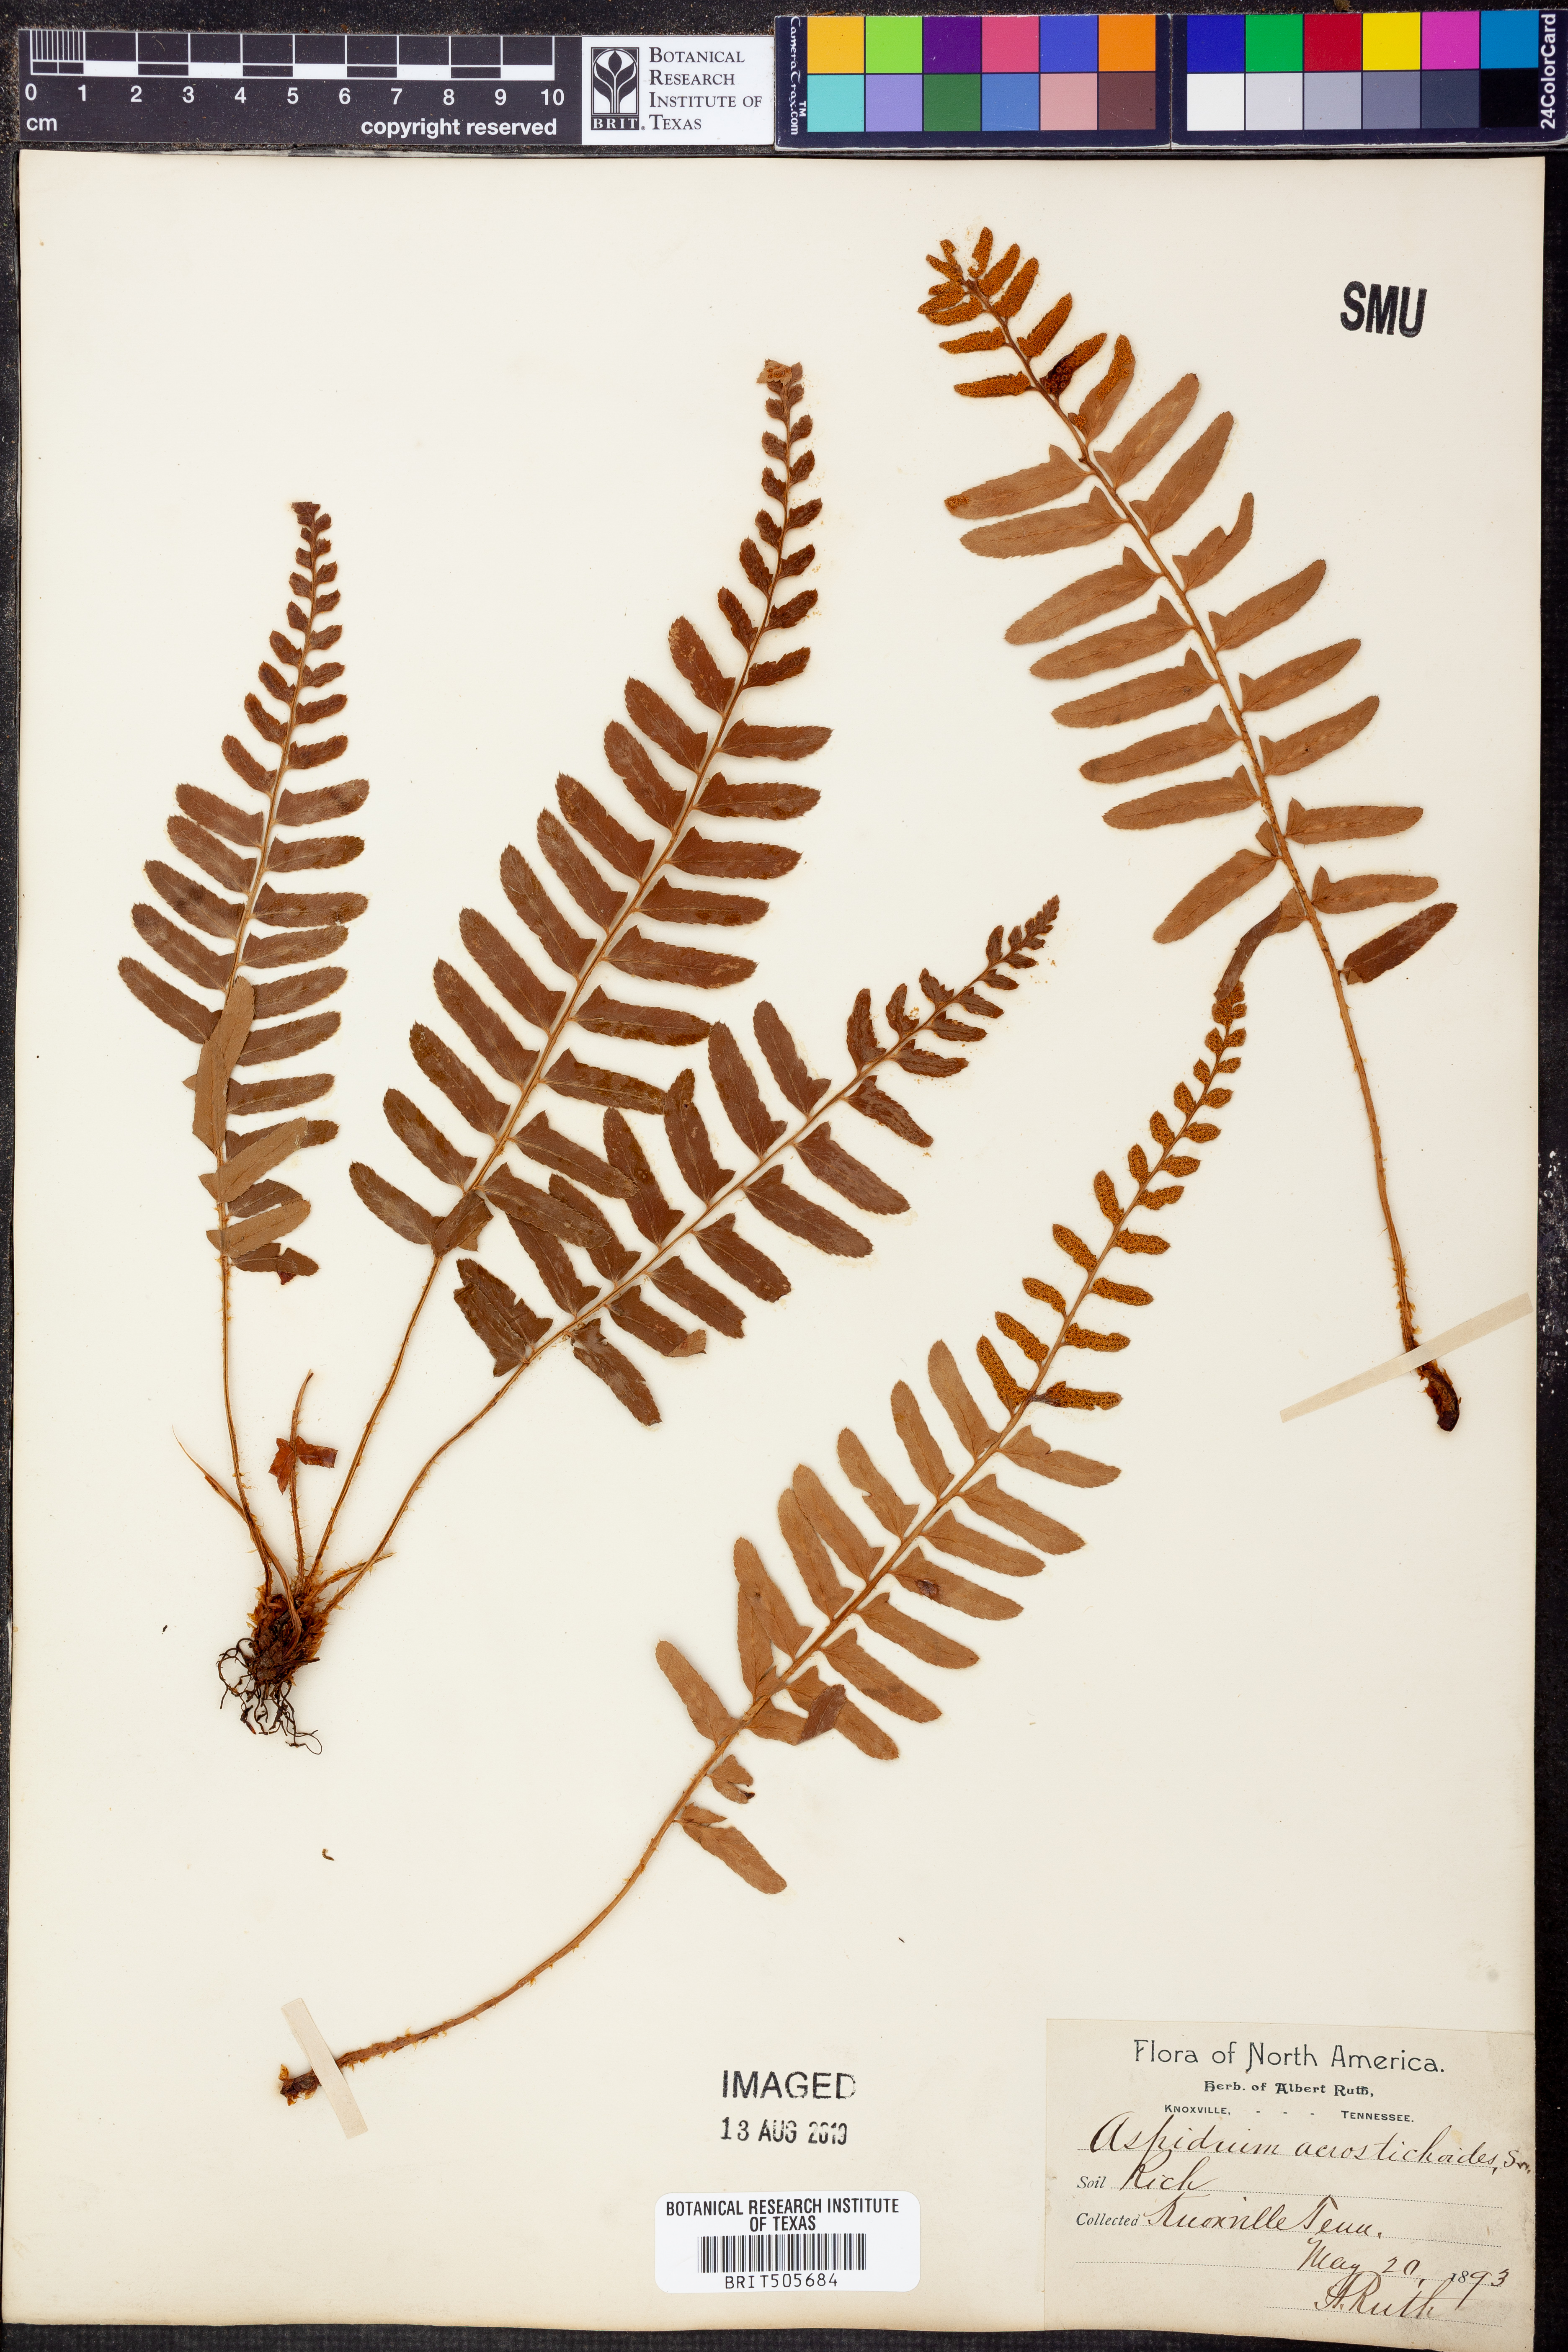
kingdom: Plantae
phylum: Tracheophyta
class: Polypodiopsida
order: Polypodiales
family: Dryopteridaceae
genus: Polystichum
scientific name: Polystichum acrostichoides
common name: Christmas fern
